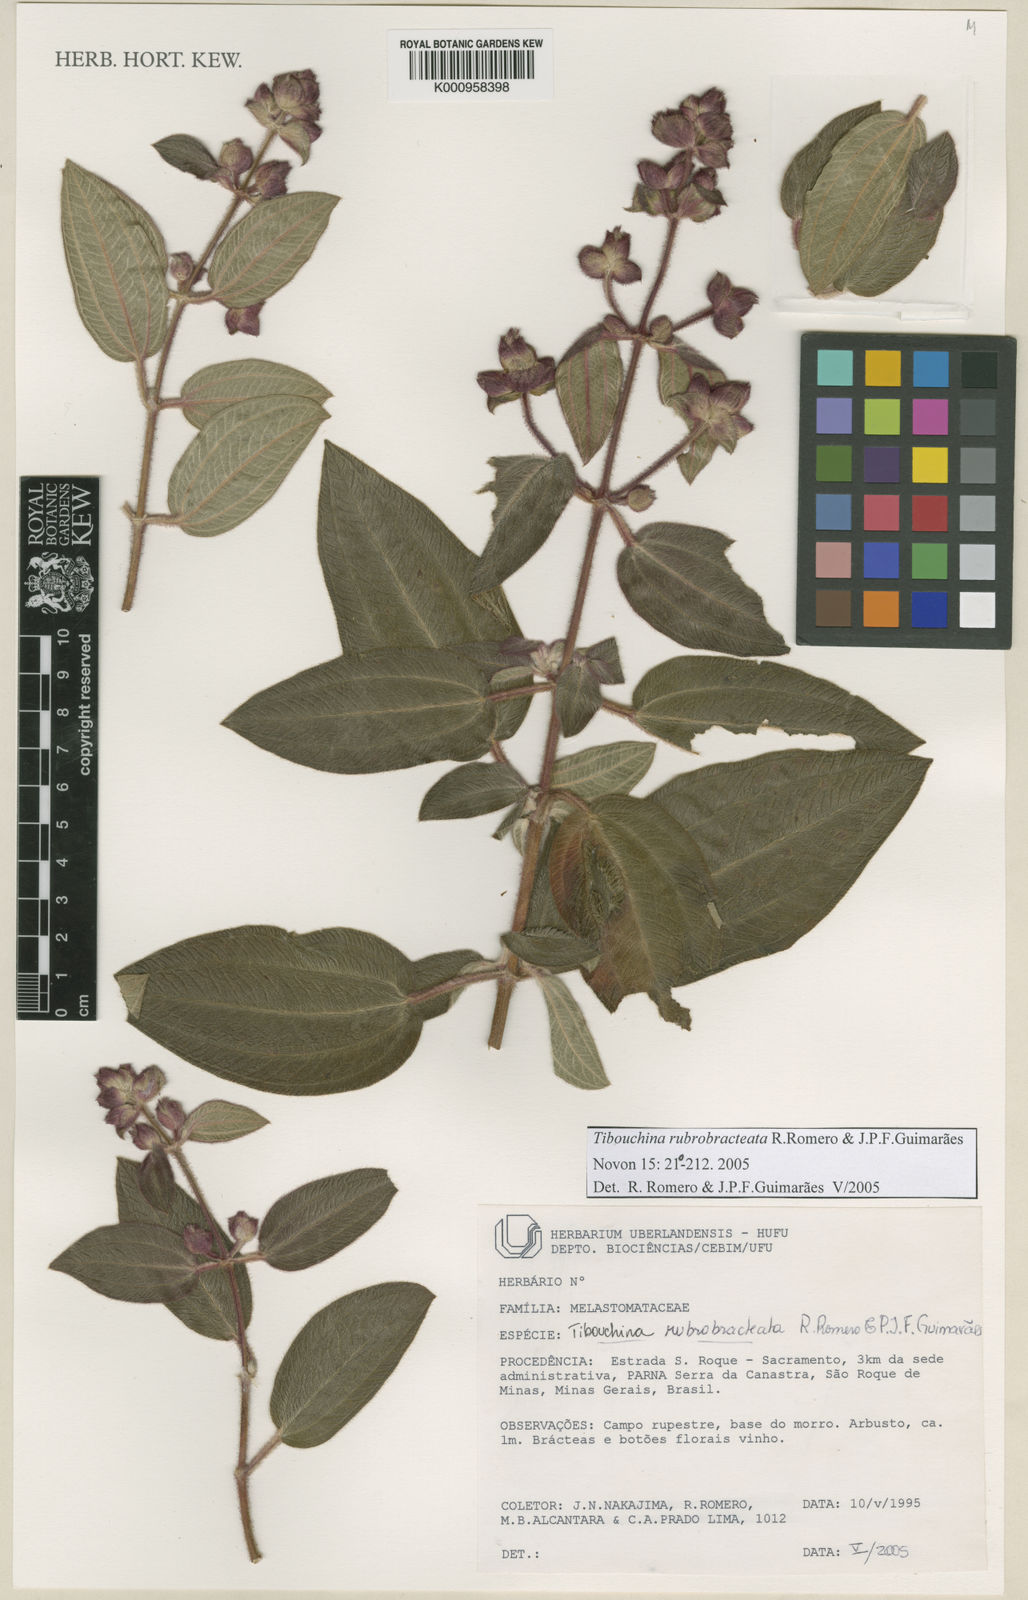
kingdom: Plantae
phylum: Tracheophyta
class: Magnoliopsida
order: Myrtales
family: Melastomataceae
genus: Pleroma
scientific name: Pleroma rubrobracteatum
